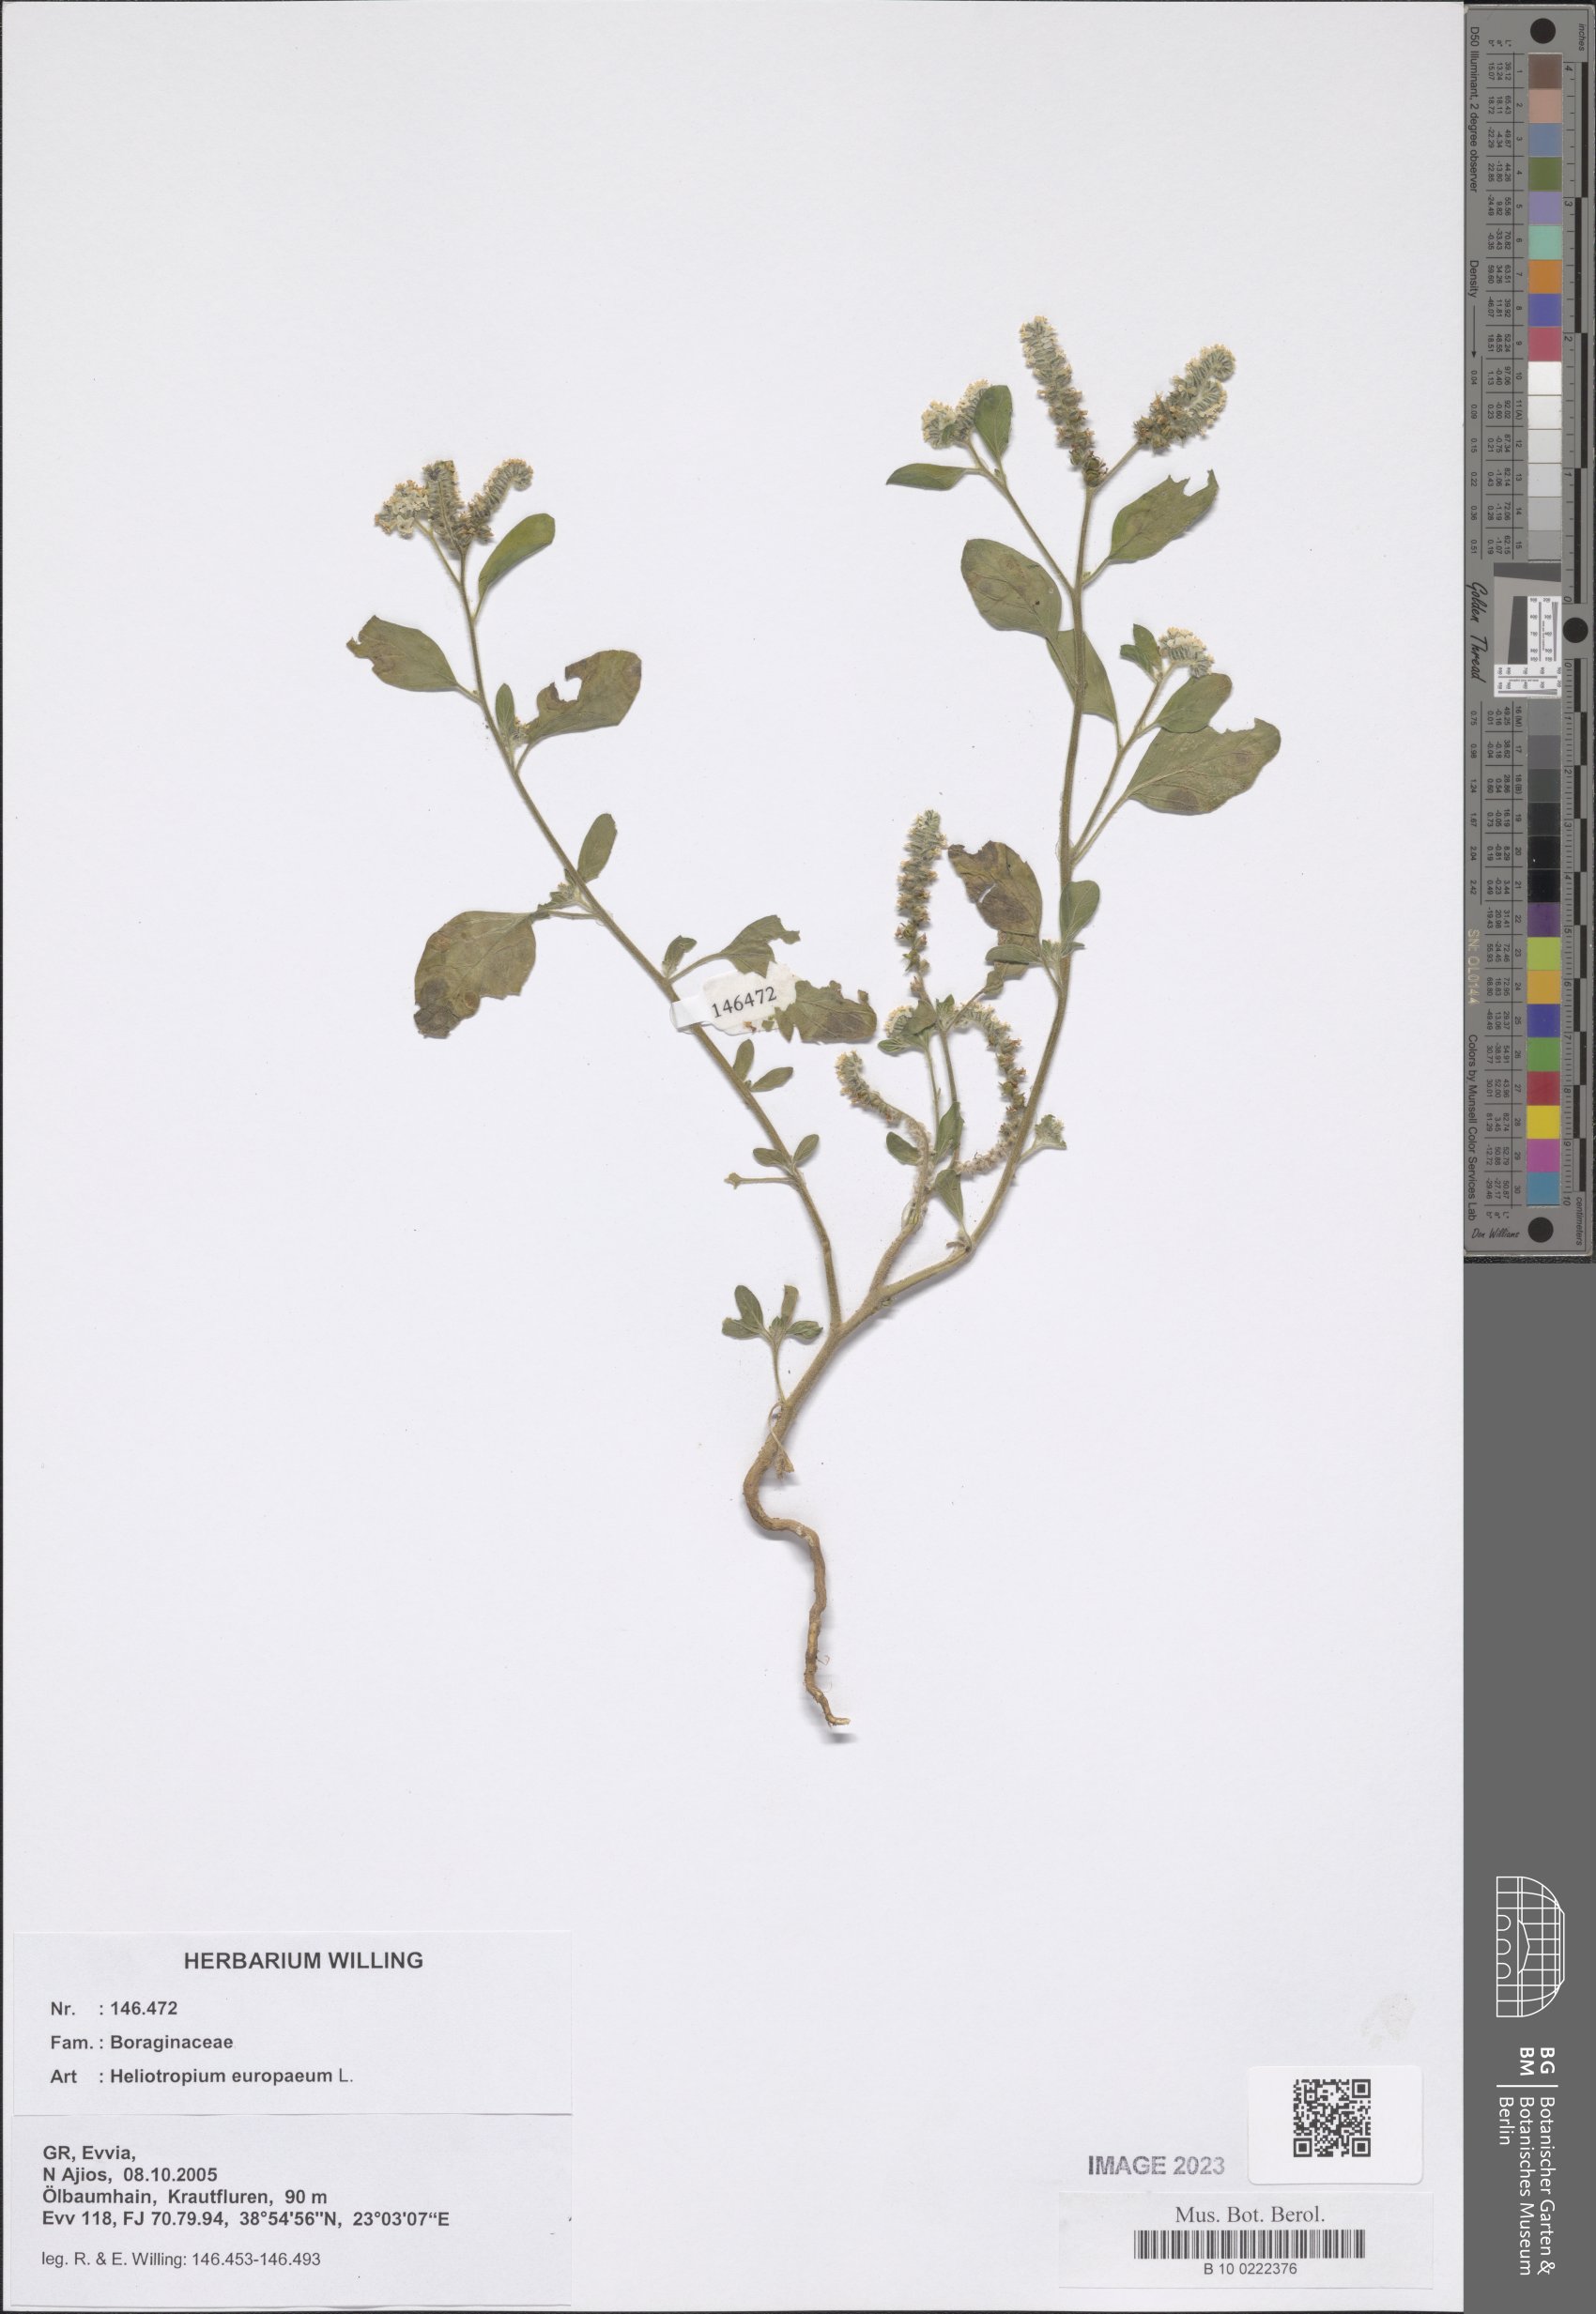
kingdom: Plantae
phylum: Tracheophyta
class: Magnoliopsida
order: Boraginales
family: Heliotropiaceae
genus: Heliotropium
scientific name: Heliotropium europaeum
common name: European heliotrope
